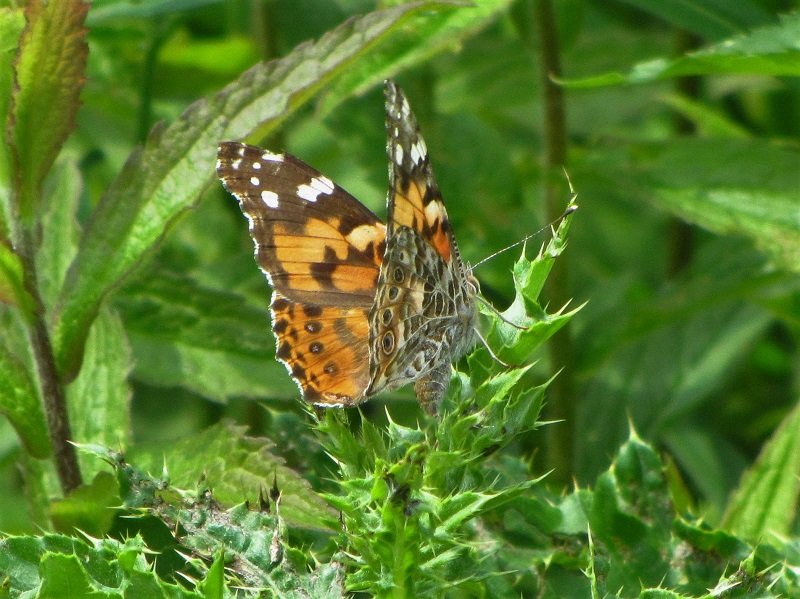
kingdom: Animalia
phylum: Arthropoda
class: Insecta
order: Lepidoptera
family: Nymphalidae
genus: Vanessa
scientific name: Vanessa cardui
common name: Painted Lady
